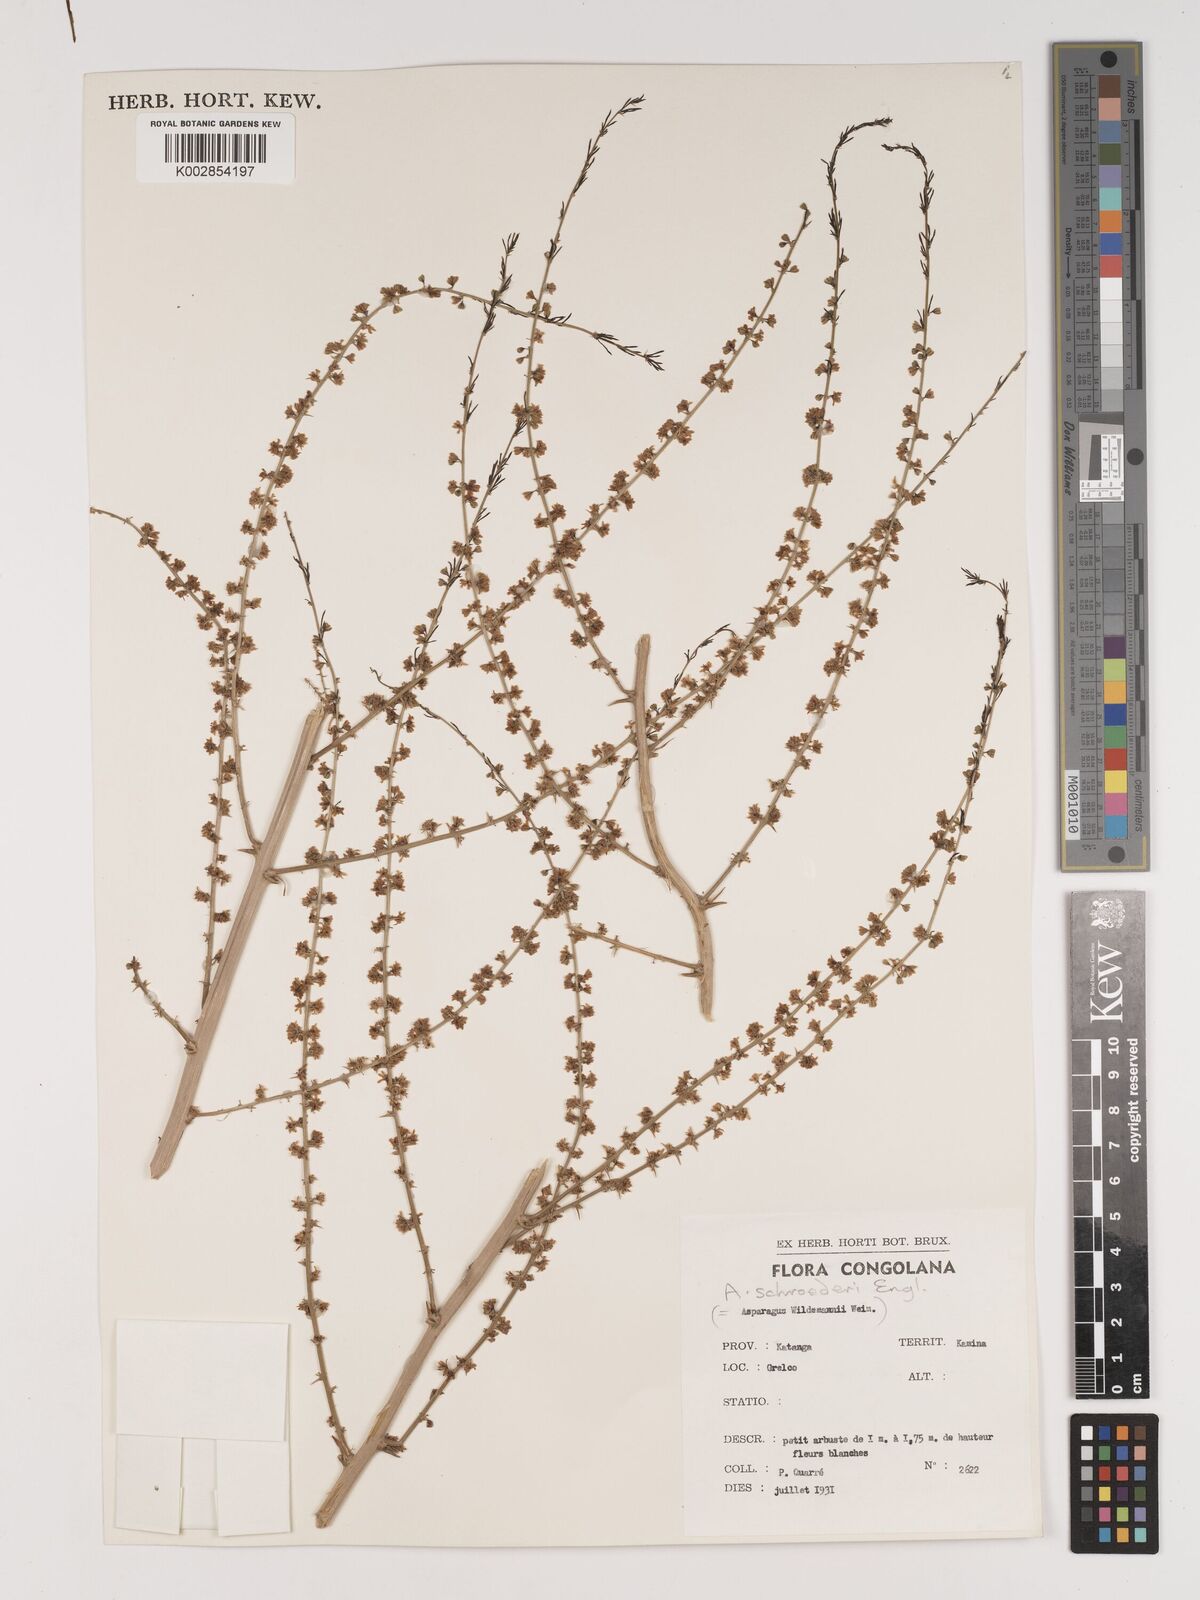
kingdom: Plantae
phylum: Tracheophyta
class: Liliopsida
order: Asparagales
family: Asparagaceae
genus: Asparagus
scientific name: Asparagus schroederi
